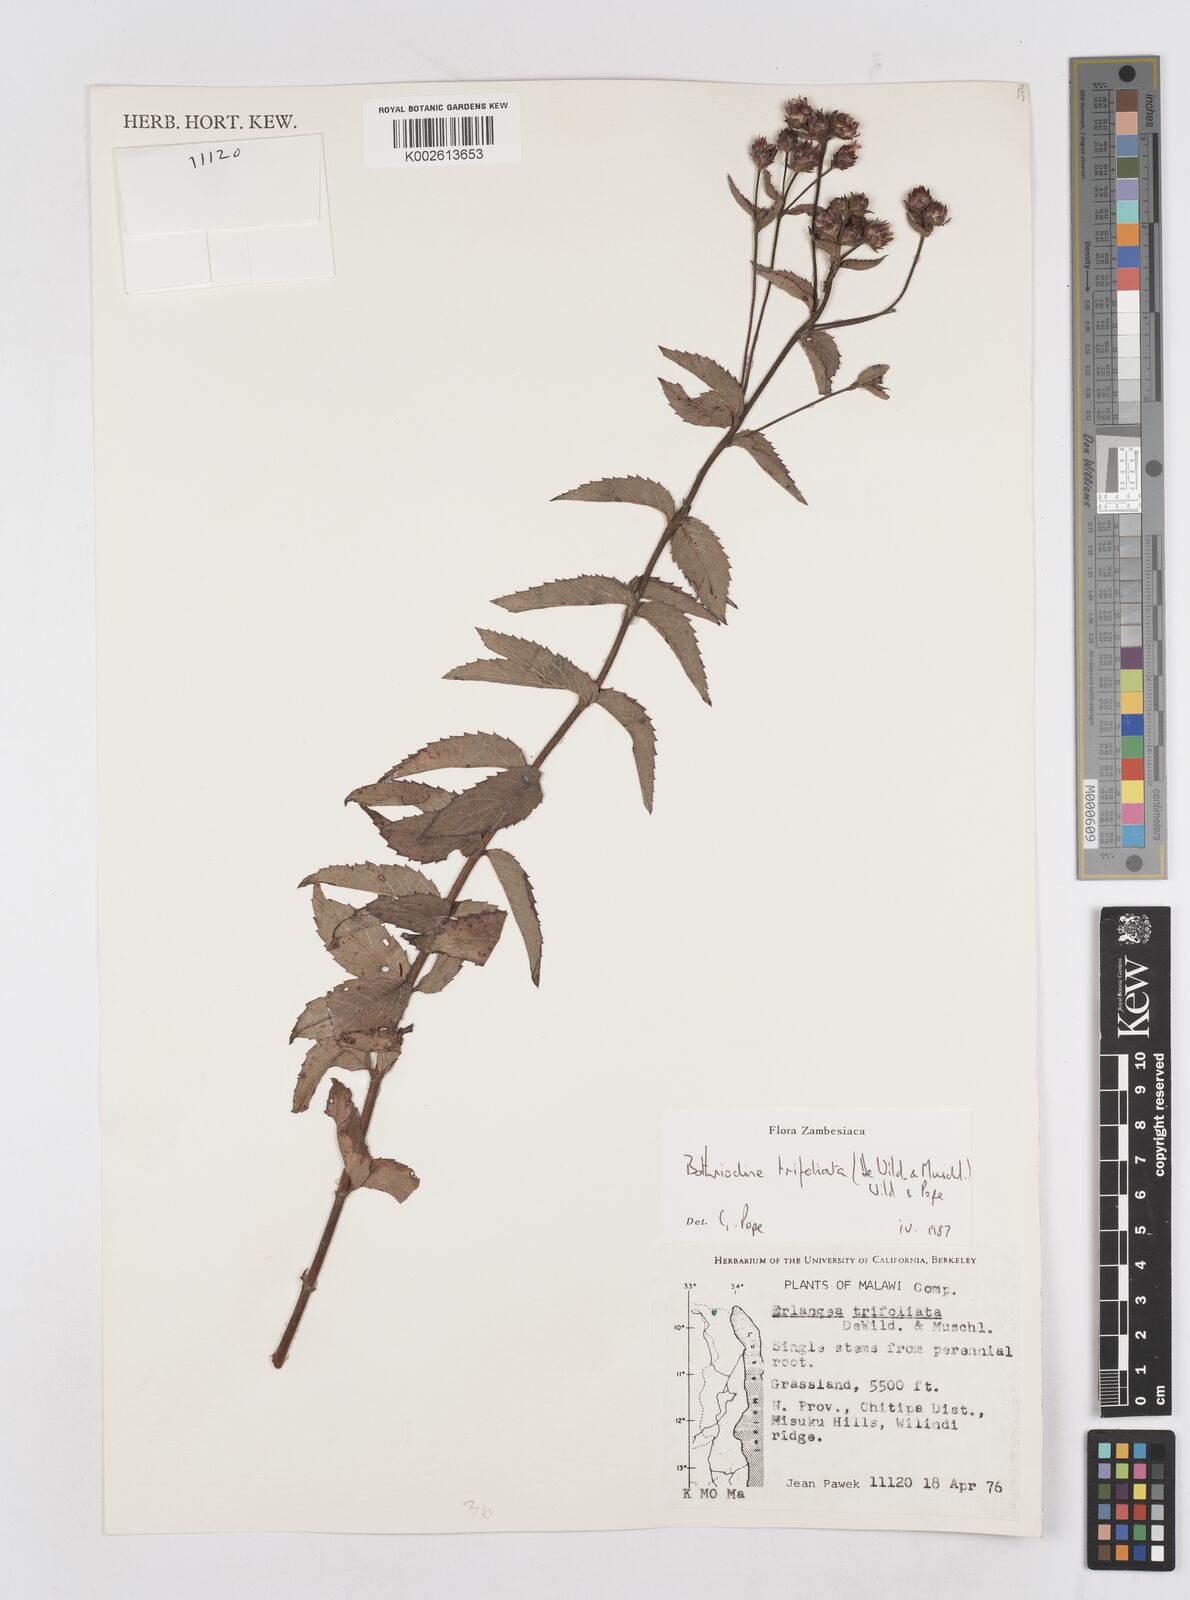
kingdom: Plantae
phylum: Tracheophyta
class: Magnoliopsida
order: Asterales
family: Asteraceae
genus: Bothriocline
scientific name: Bothriocline trifoliata
